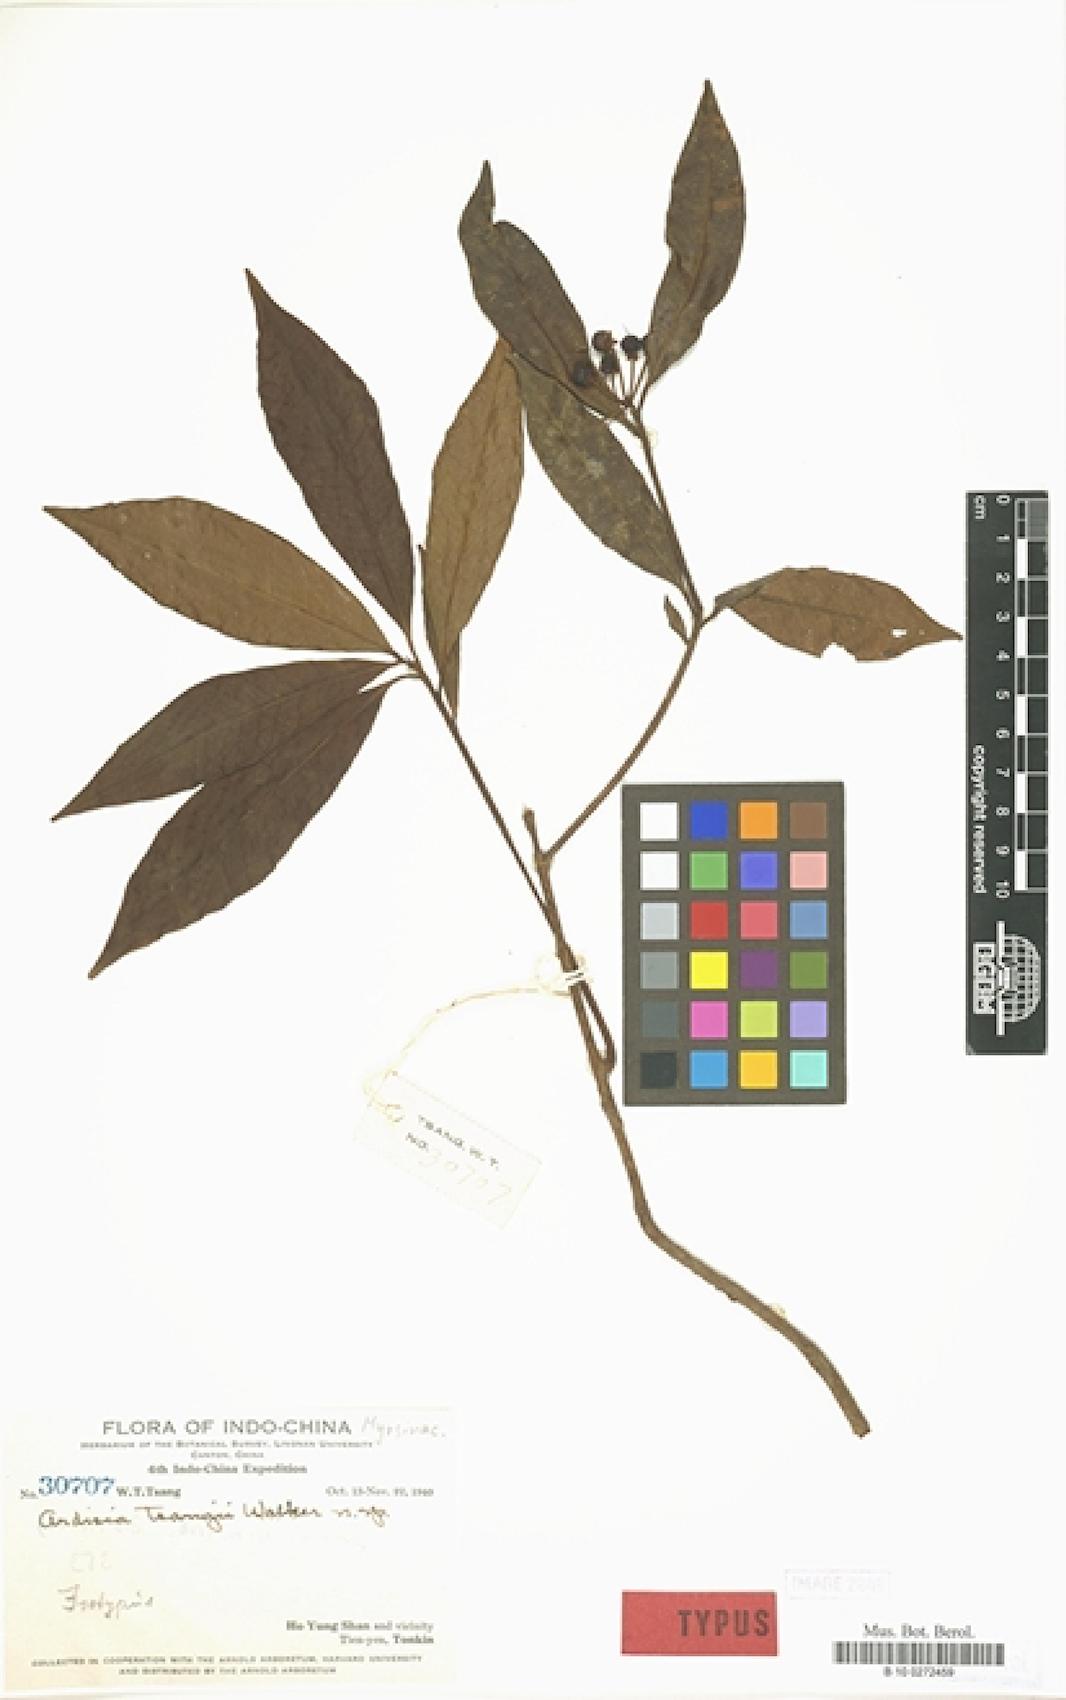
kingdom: Plantae
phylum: Tracheophyta
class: Magnoliopsida
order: Ericales
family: Primulaceae
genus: Ardisia
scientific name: Ardisia lindleyana
